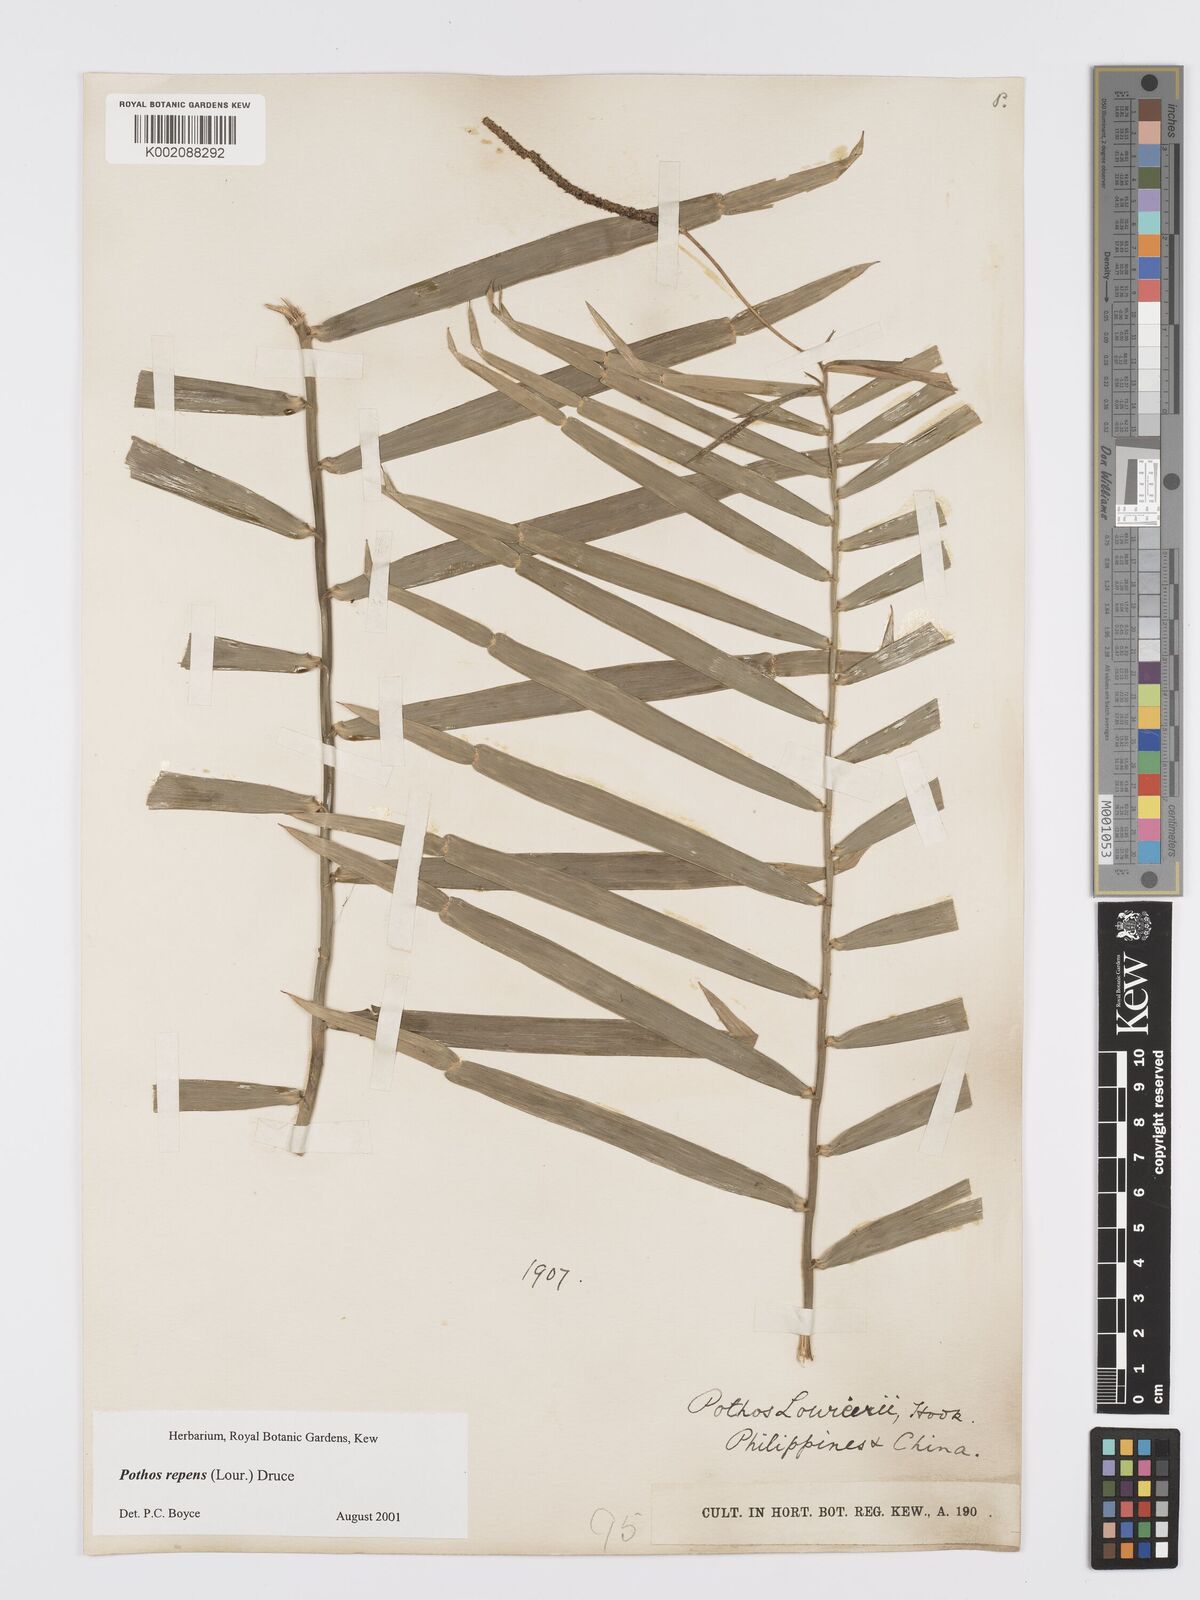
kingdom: Plantae
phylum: Tracheophyta
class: Liliopsida
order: Alismatales
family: Araceae
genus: Pothos
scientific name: Pothos repens
